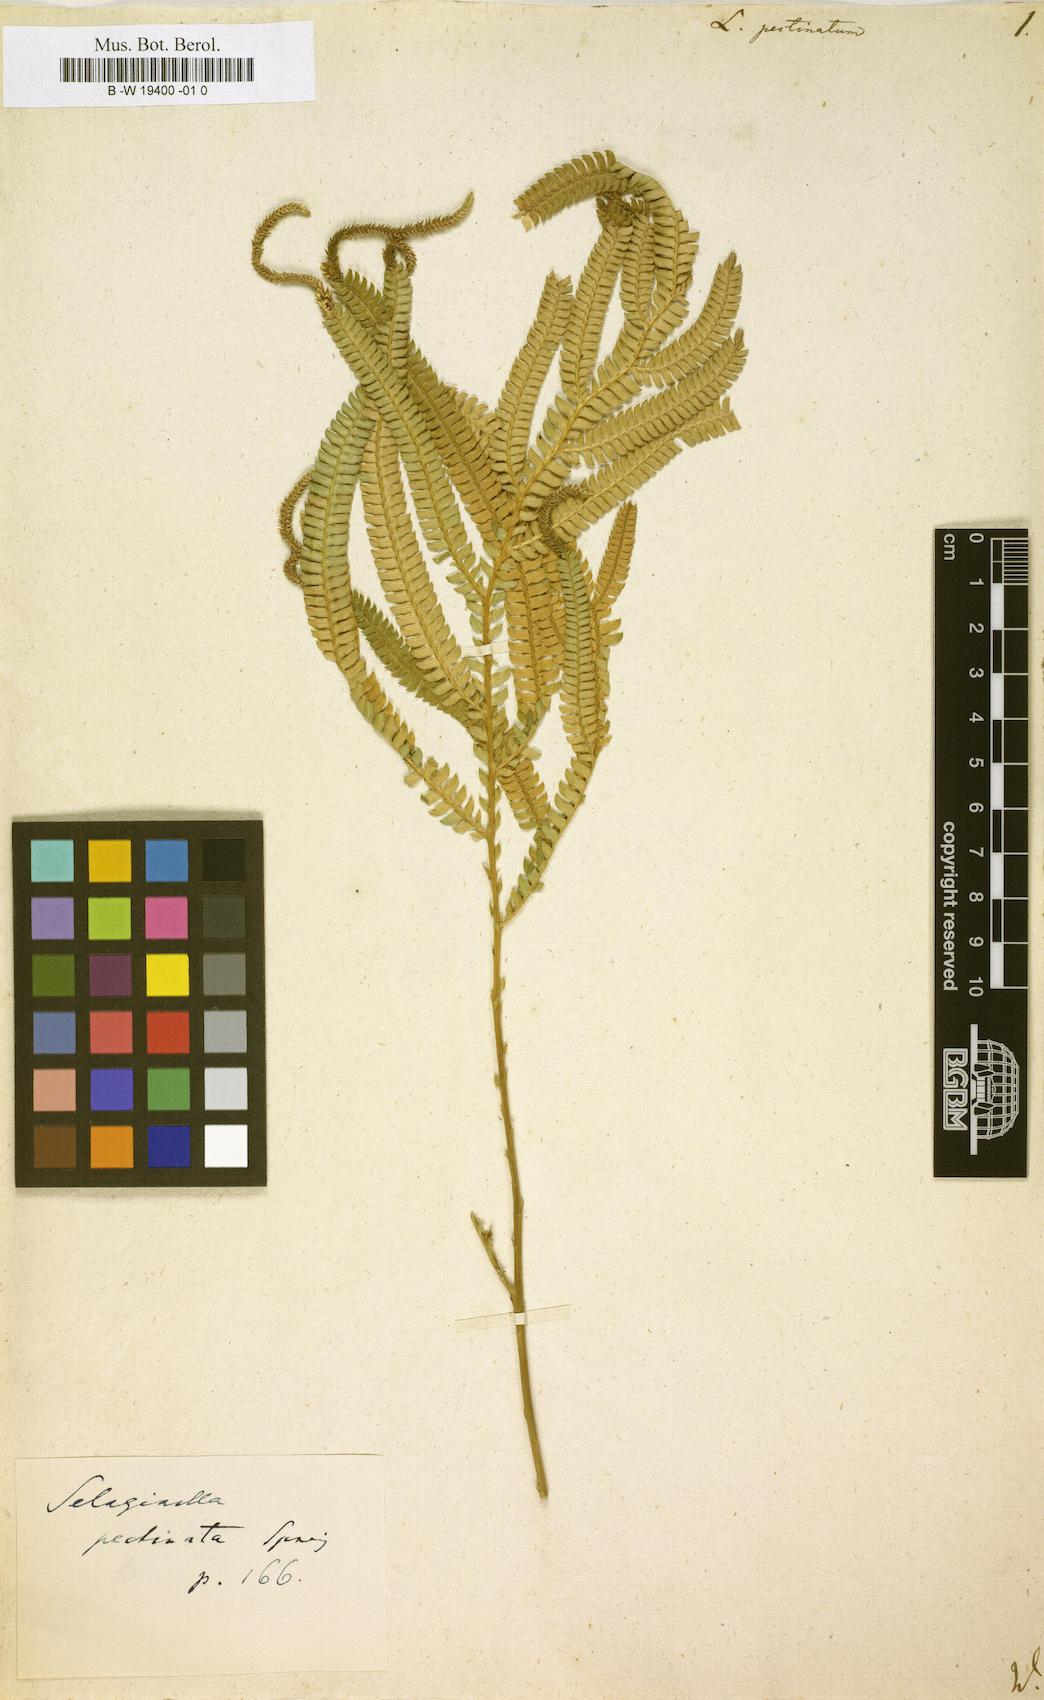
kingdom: Plantae
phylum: Tracheophyta
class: Lycopodiopsida
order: Selaginellales
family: Selaginellaceae
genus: Selaginella
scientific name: Selaginella
